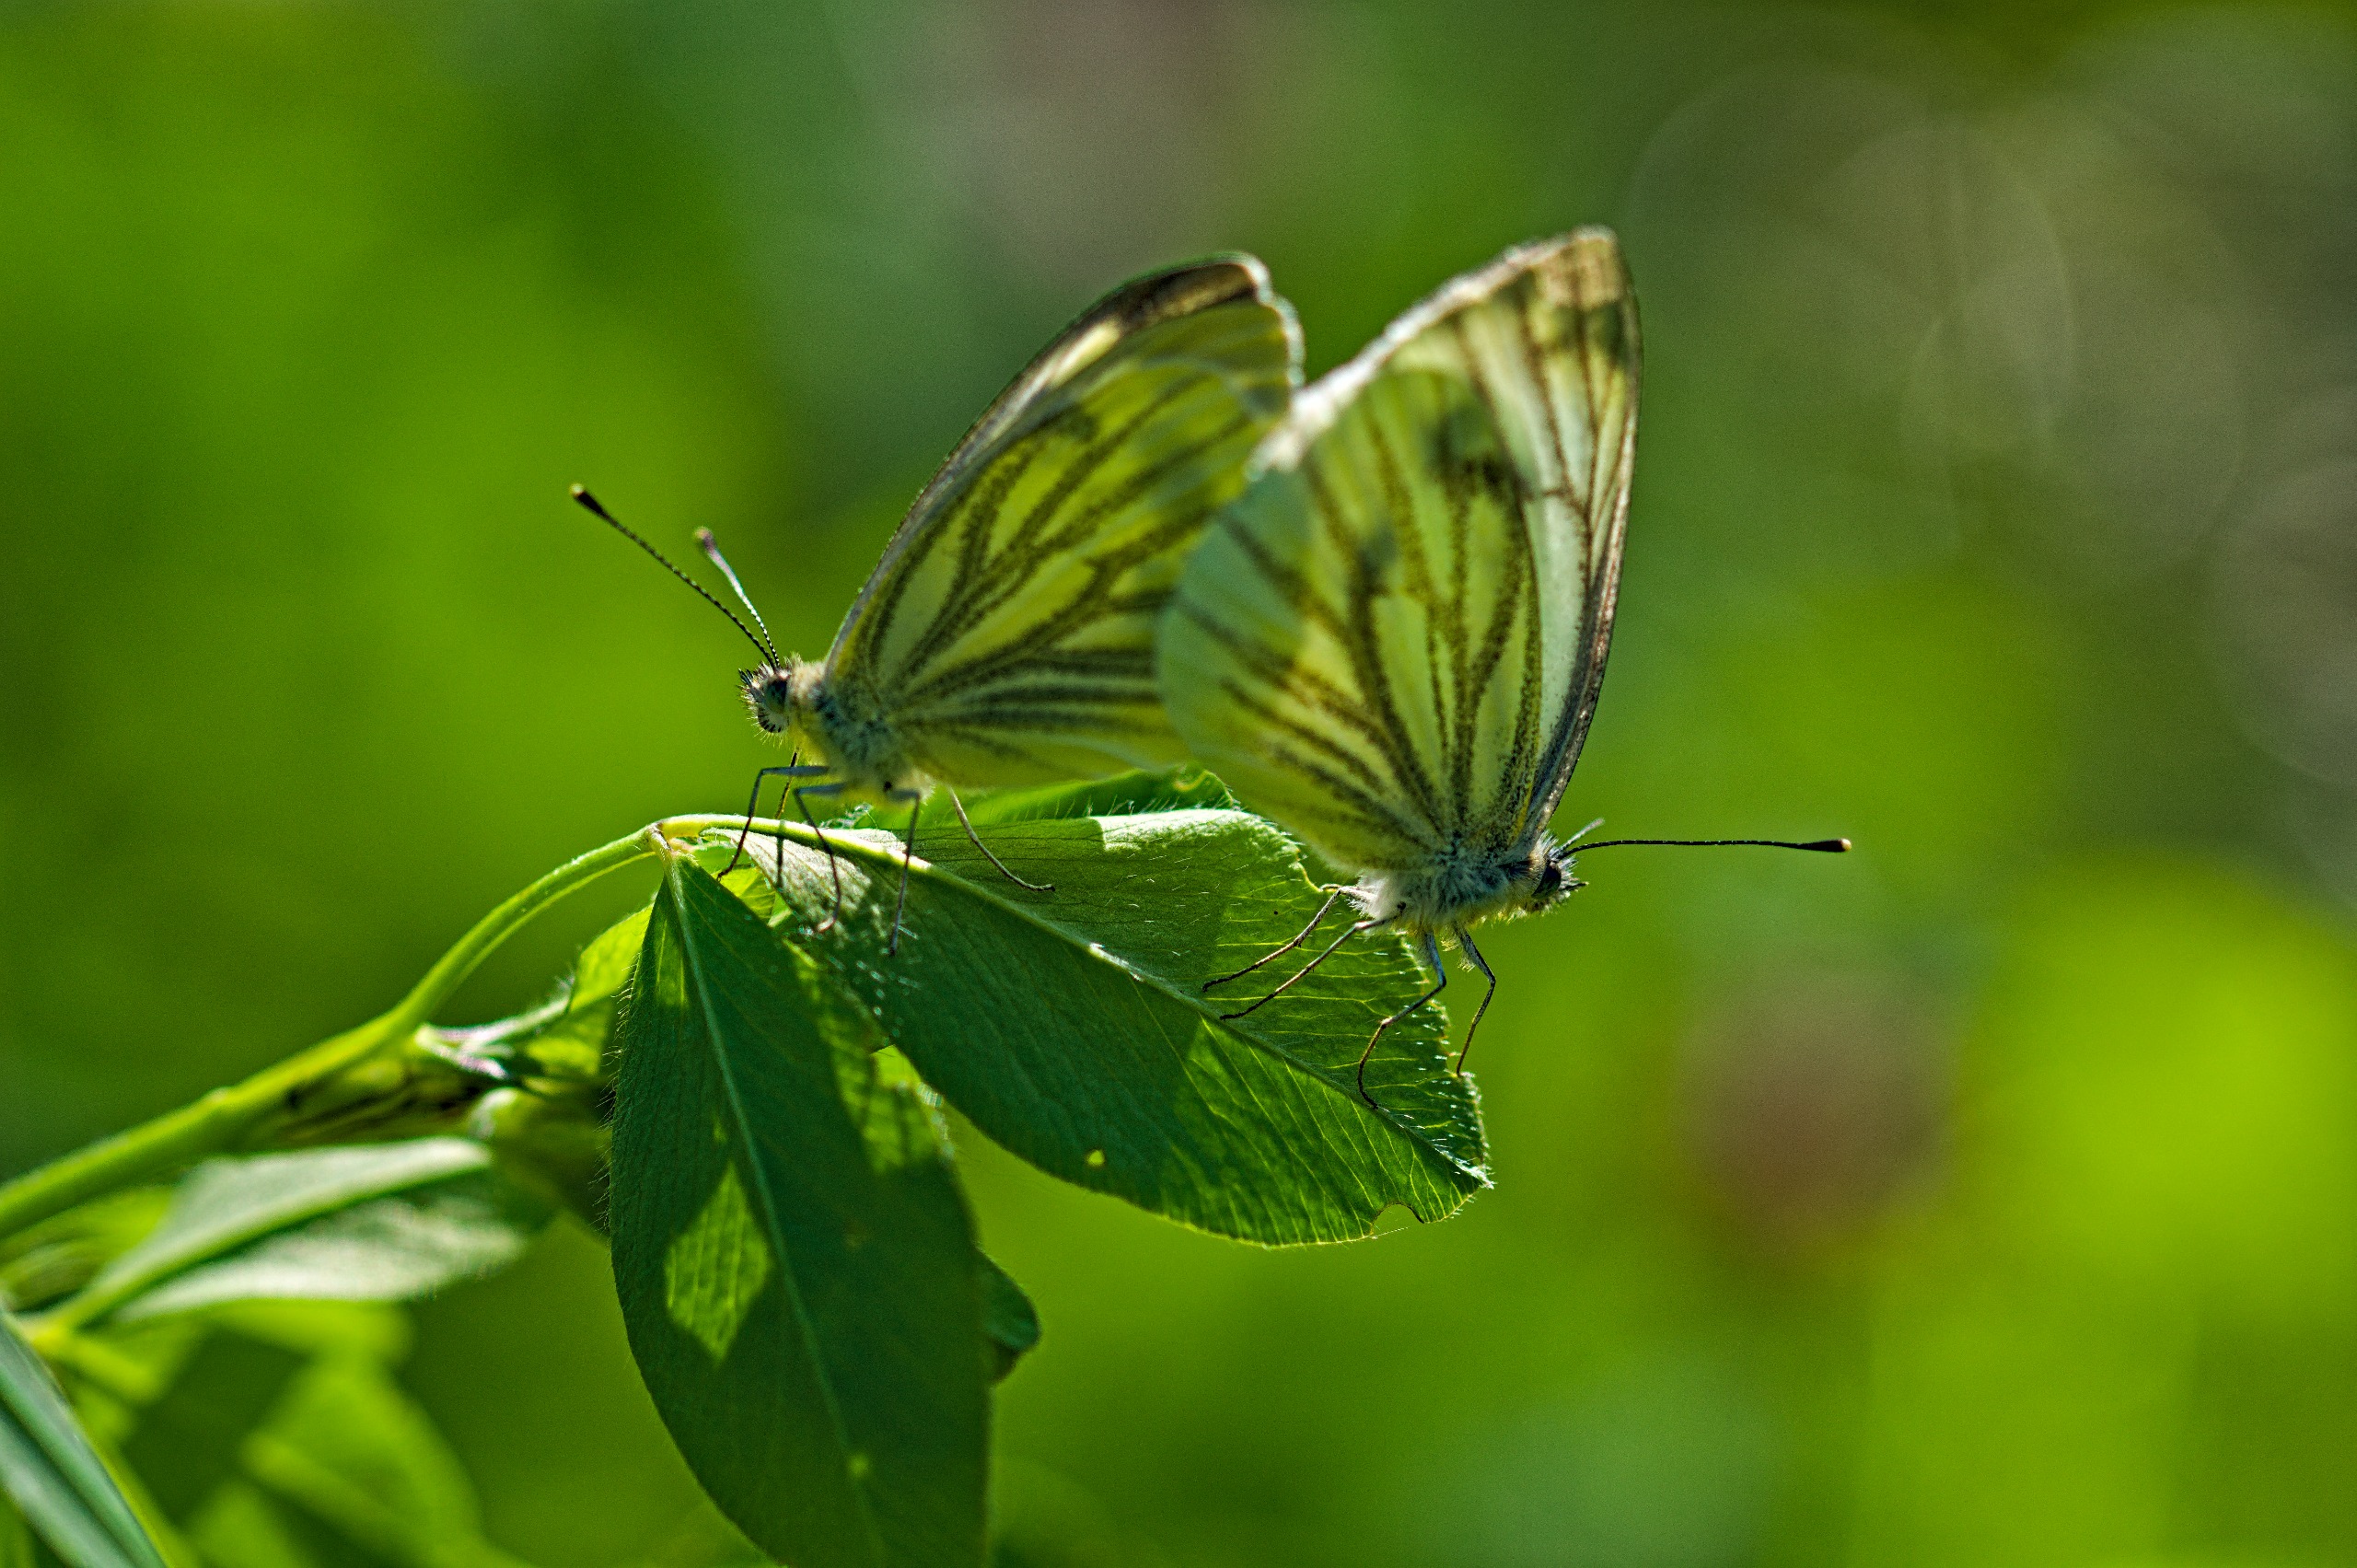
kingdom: Animalia
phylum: Arthropoda
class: Insecta
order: Lepidoptera
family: Pieridae
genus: Pieris
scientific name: Pieris napi
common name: Grønåret kålsommerfugl
